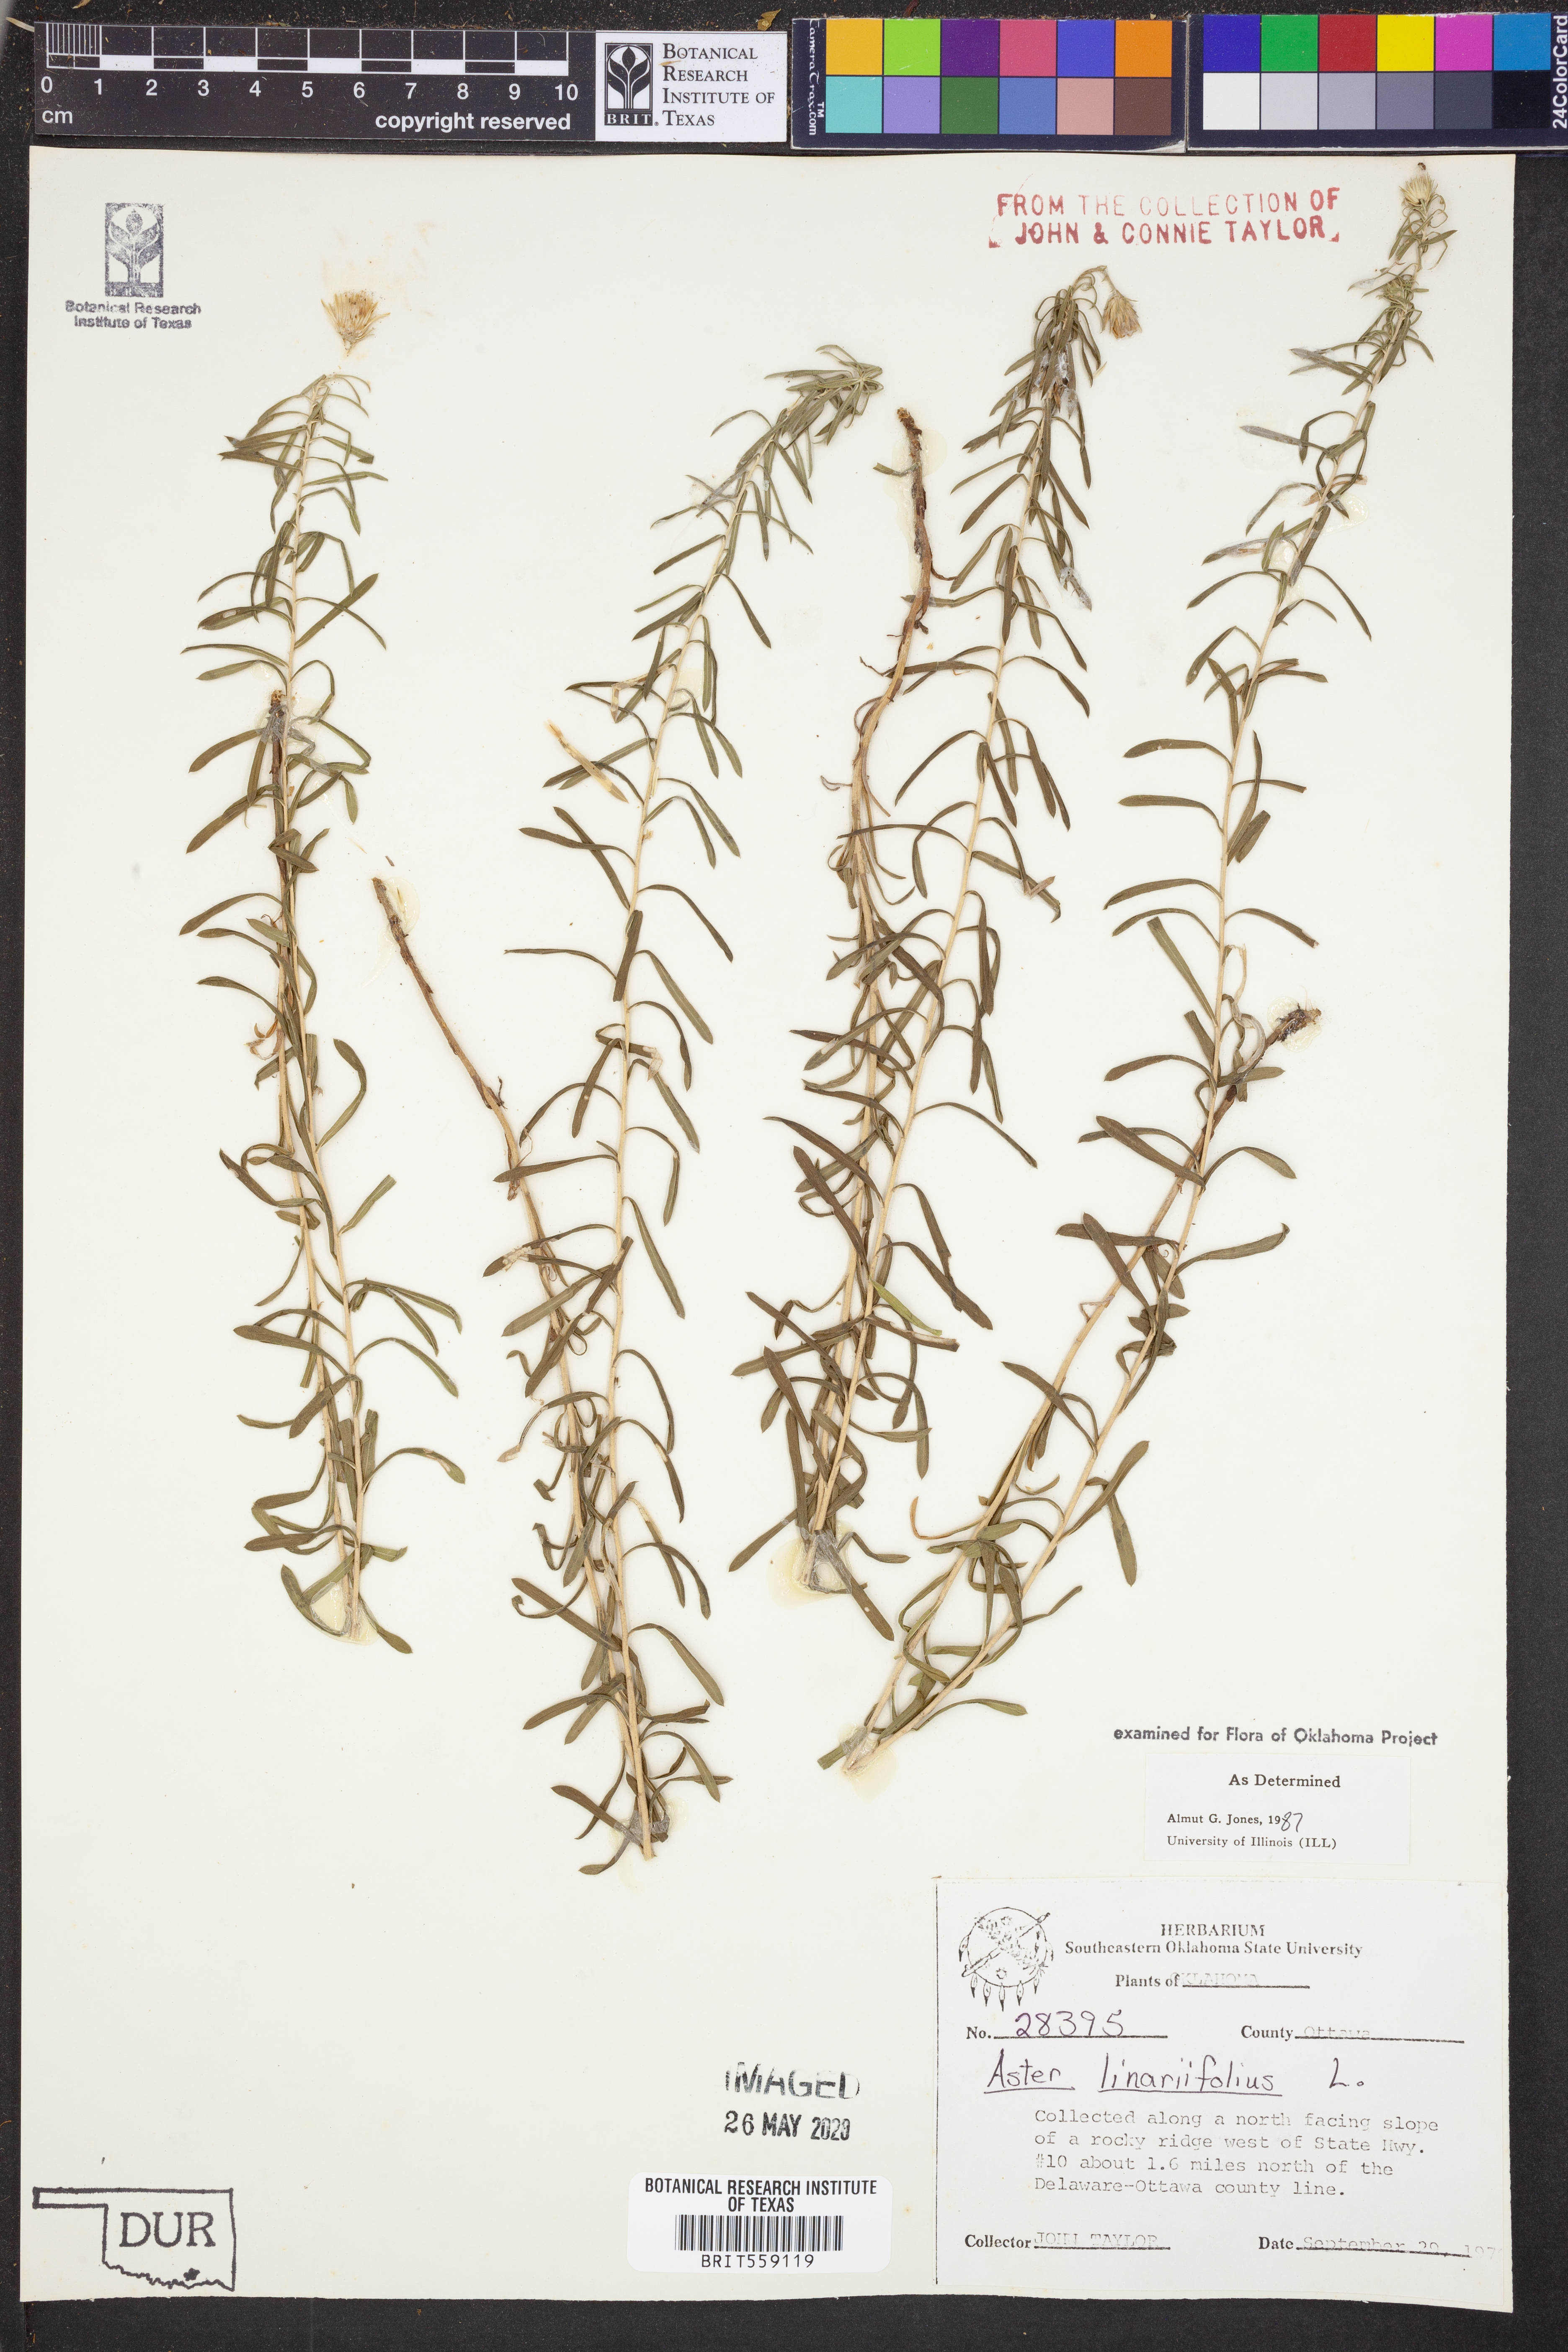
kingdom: Plantae
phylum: Tracheophyta
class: Magnoliopsida
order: Asterales
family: Asteraceae
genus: Ionactis
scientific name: Ionactis linariifolia
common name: Flax-leaf aster
